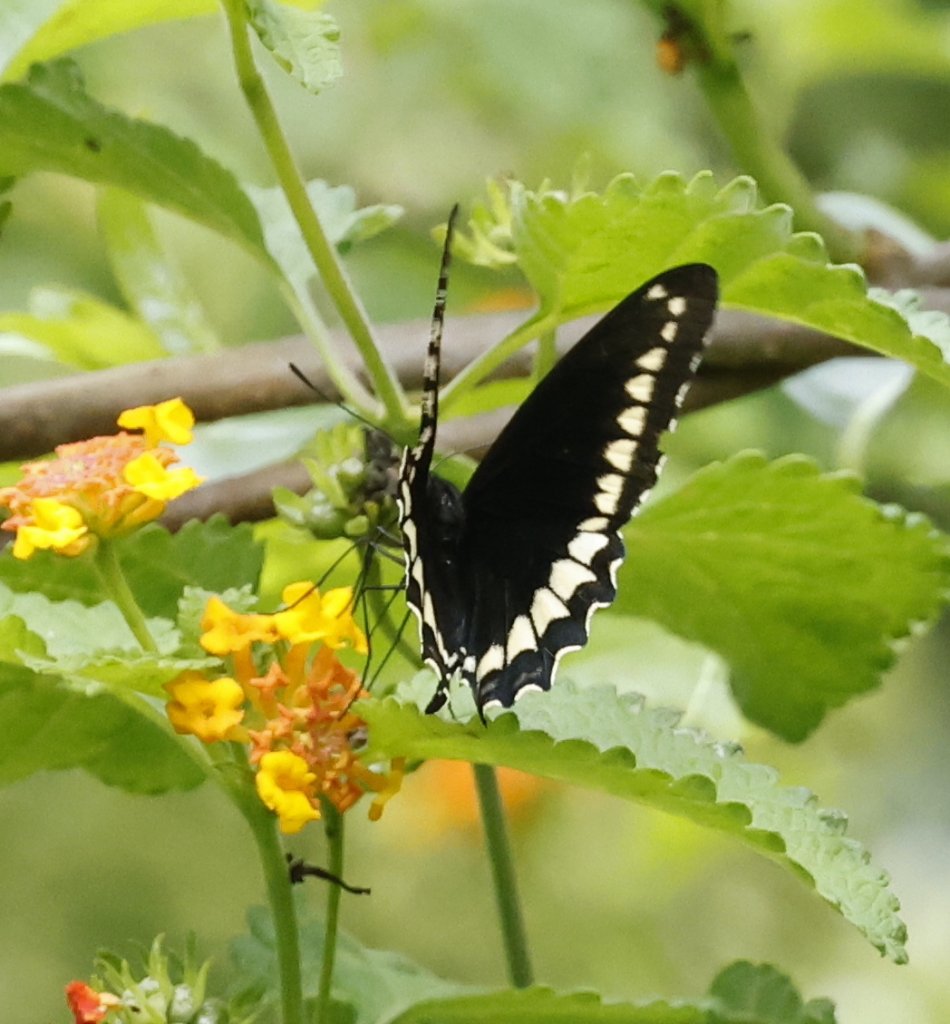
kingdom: Animalia
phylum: Arthropoda
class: Insecta
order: Lepidoptera
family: Papilionidae
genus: Battus
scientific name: Battus polydamas
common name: Polydamas Swallowtail
